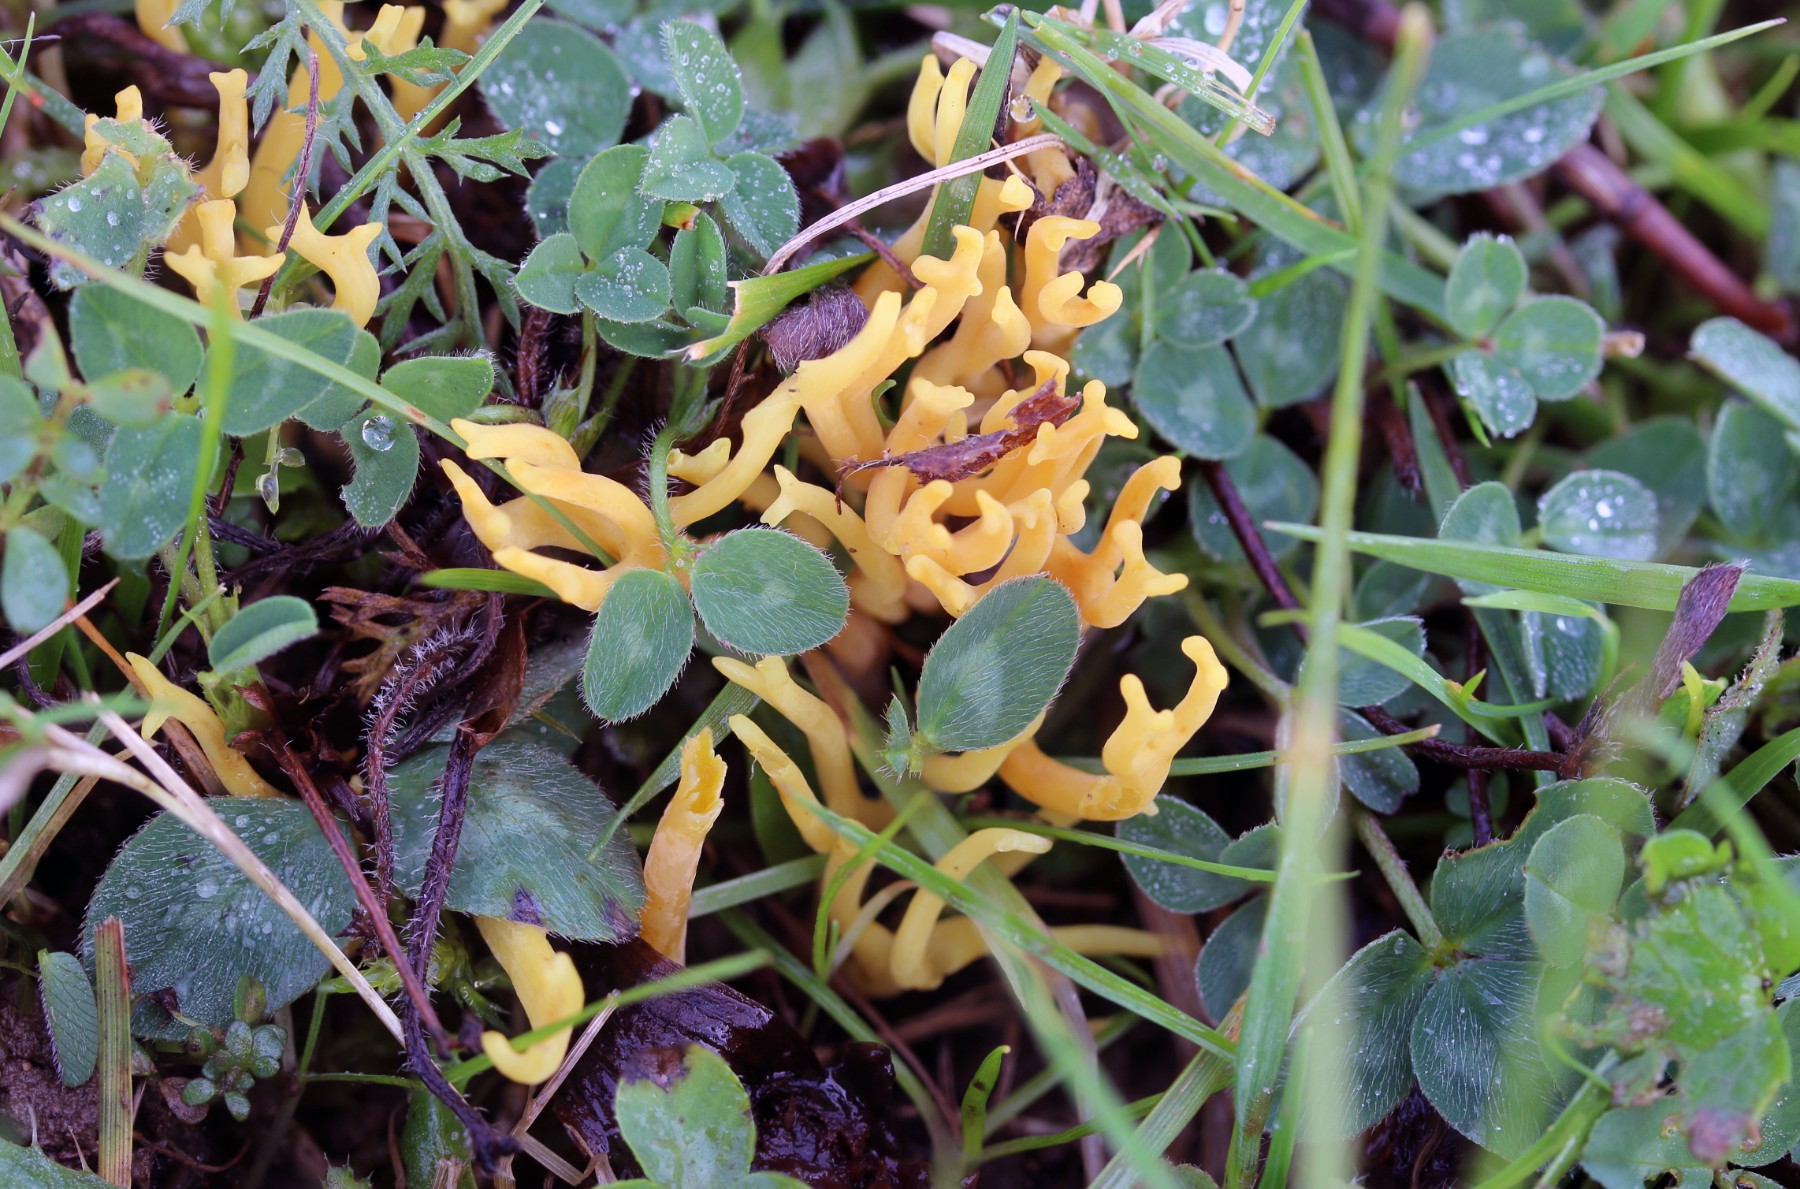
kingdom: Fungi
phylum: Basidiomycota
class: Agaricomycetes
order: Agaricales
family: Clavariaceae
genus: Clavulinopsis
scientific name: Clavulinopsis corniculata
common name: eng-køllesvamp
